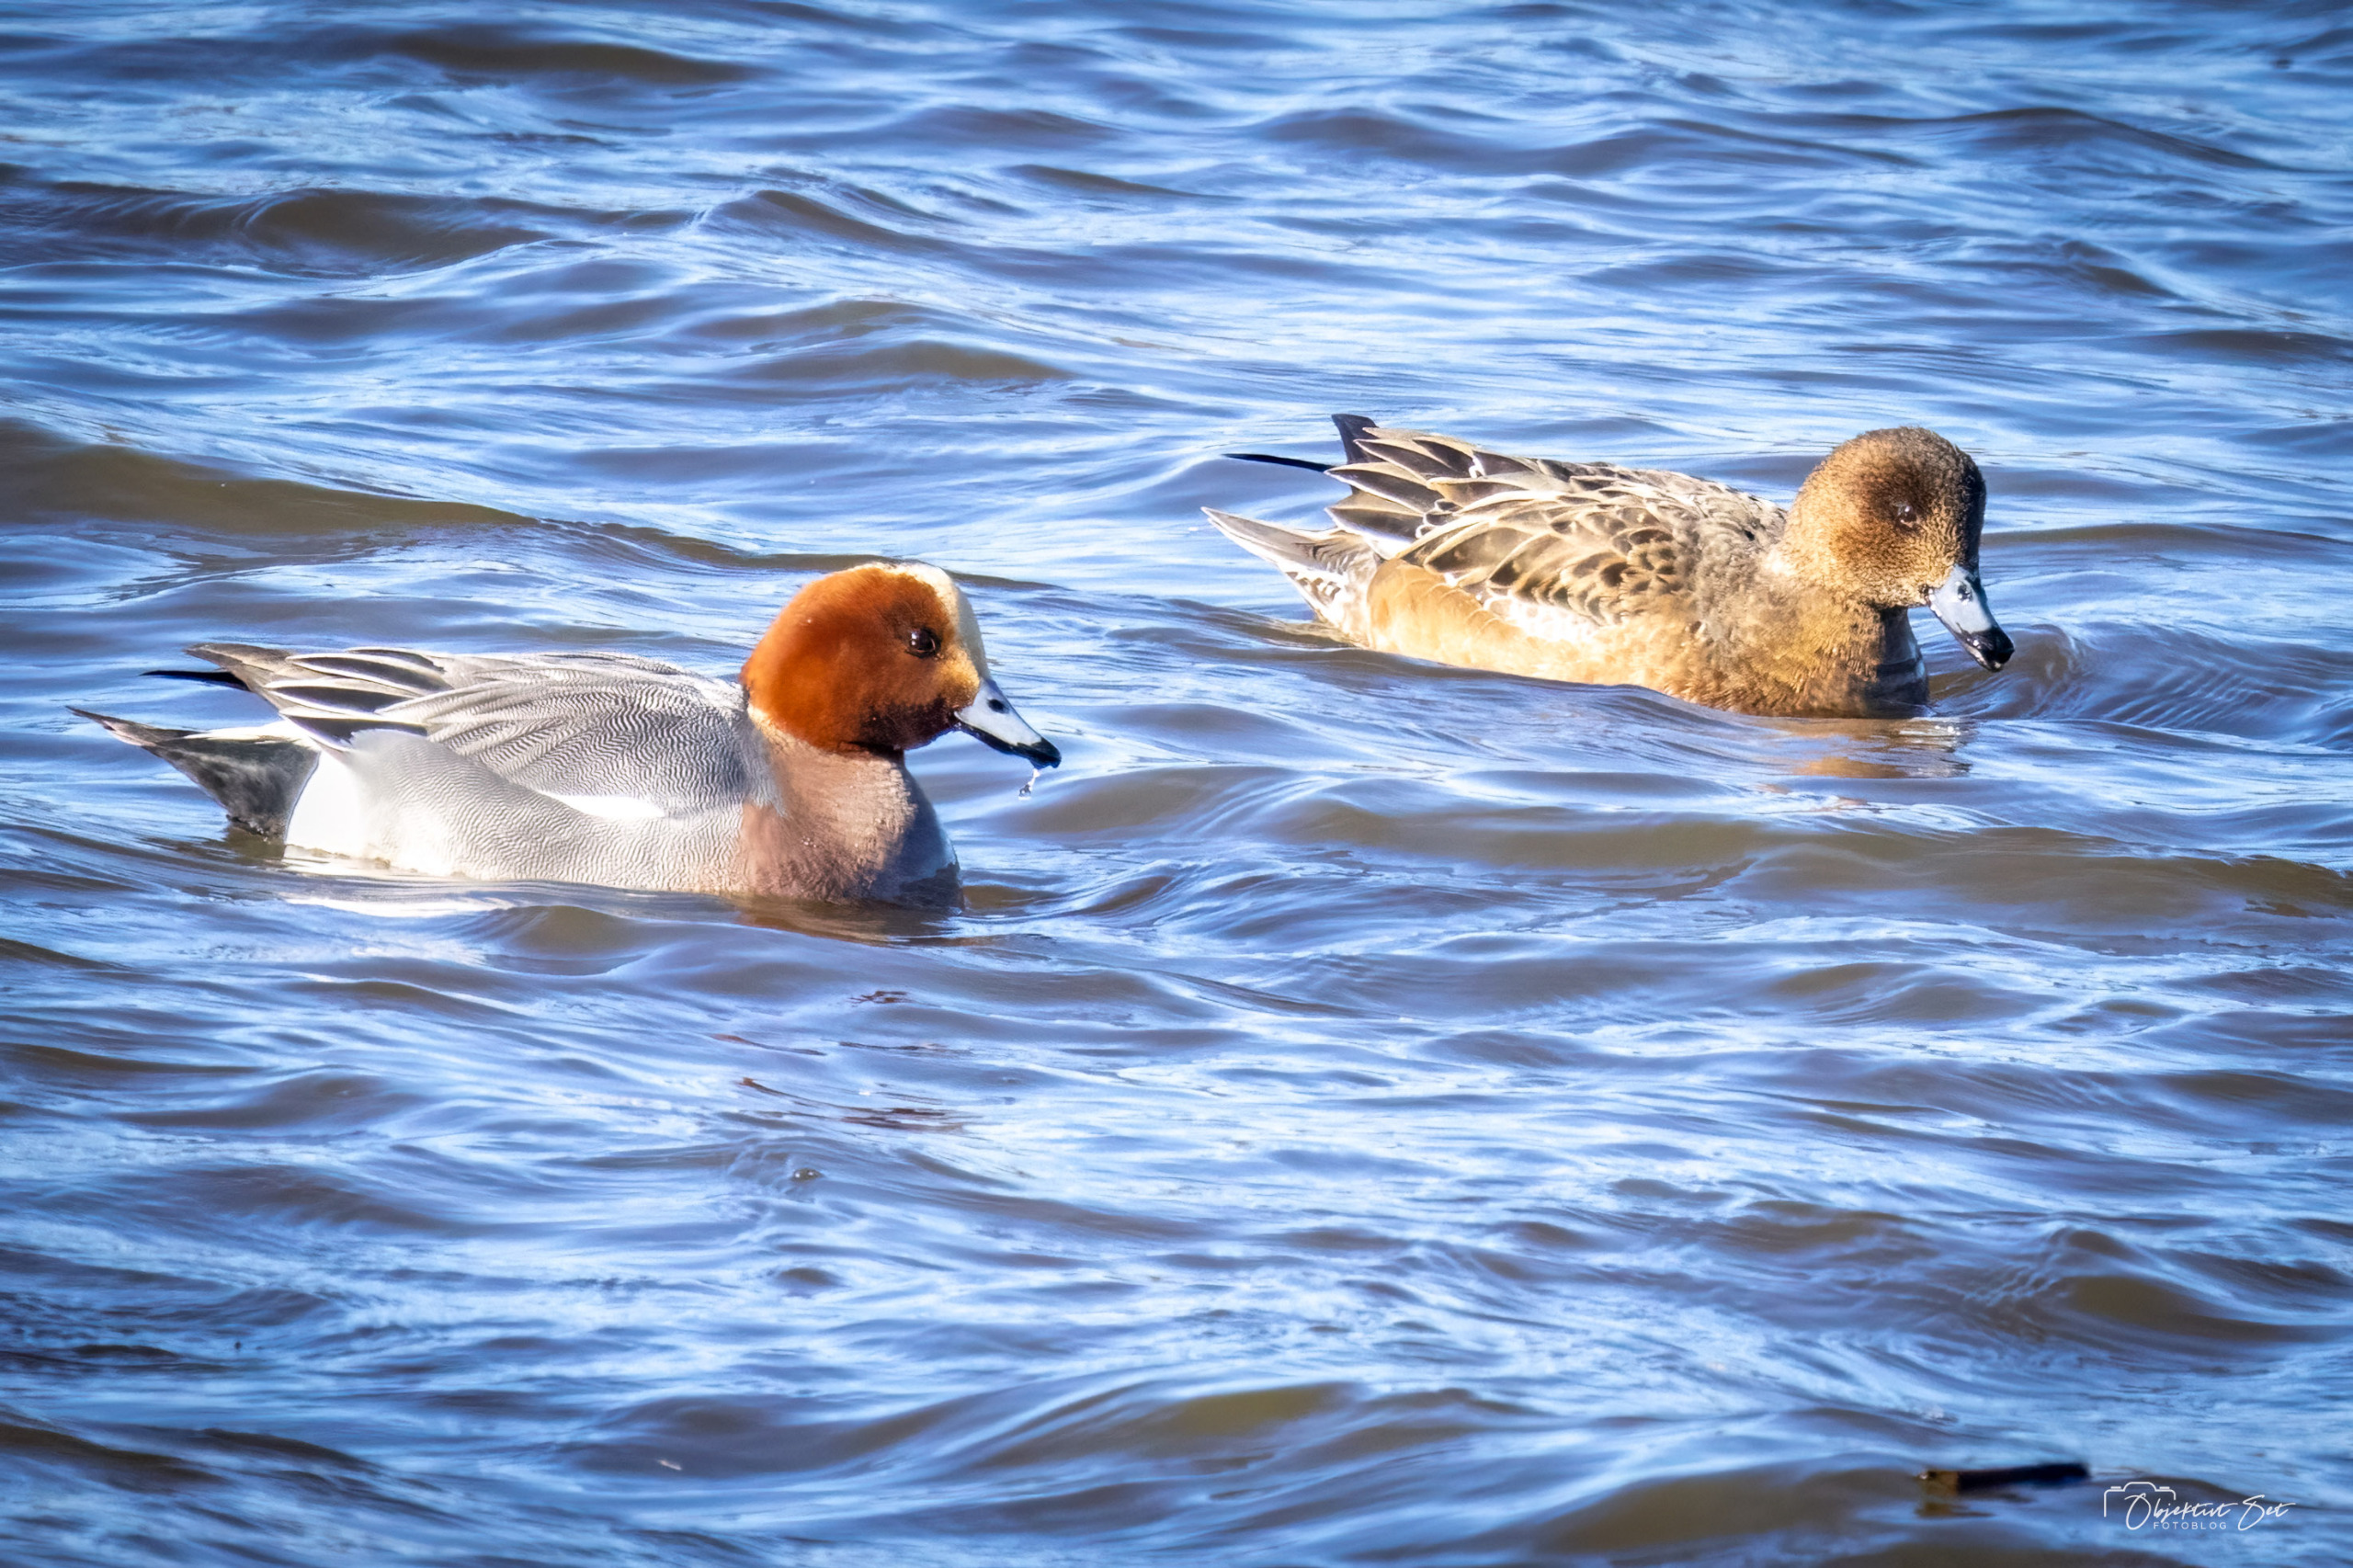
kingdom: Animalia
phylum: Chordata
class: Aves
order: Anseriformes
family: Anatidae
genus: Mareca
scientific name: Mareca penelope
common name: Pibeand
